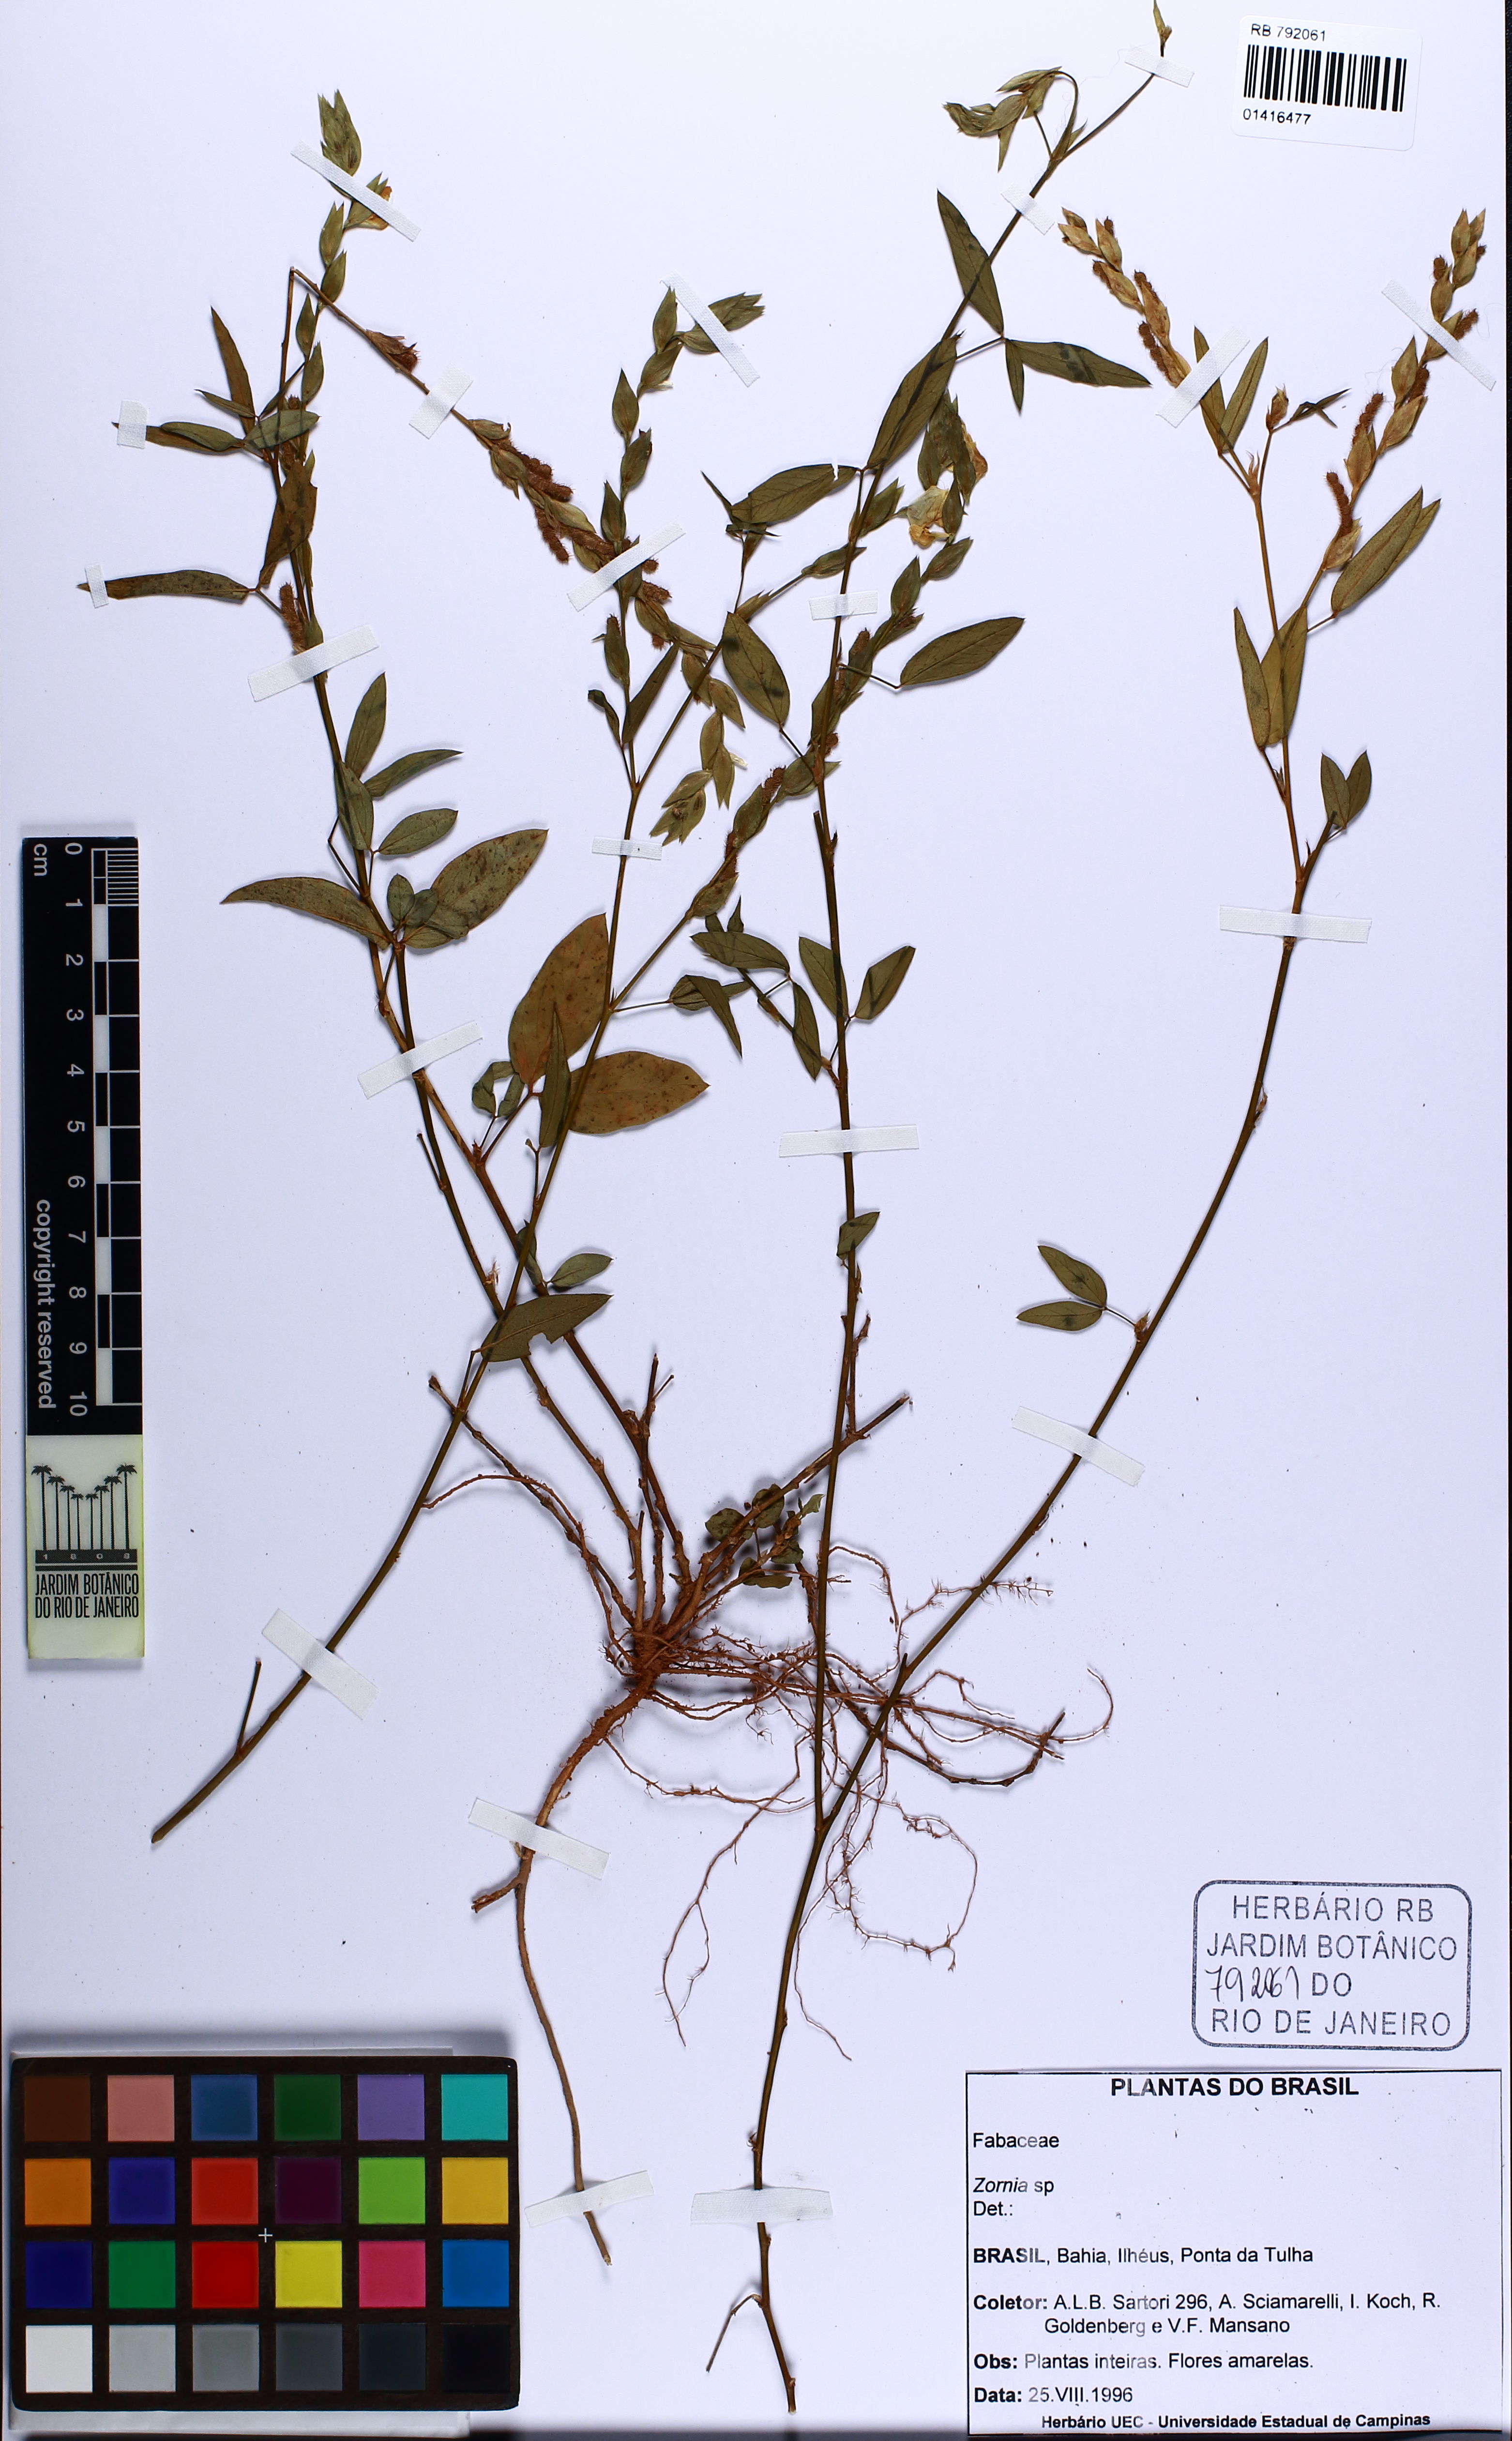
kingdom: Plantae
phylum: Tracheophyta
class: Magnoliopsida
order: Fabales
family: Fabaceae
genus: Zornia
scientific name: Zornia
